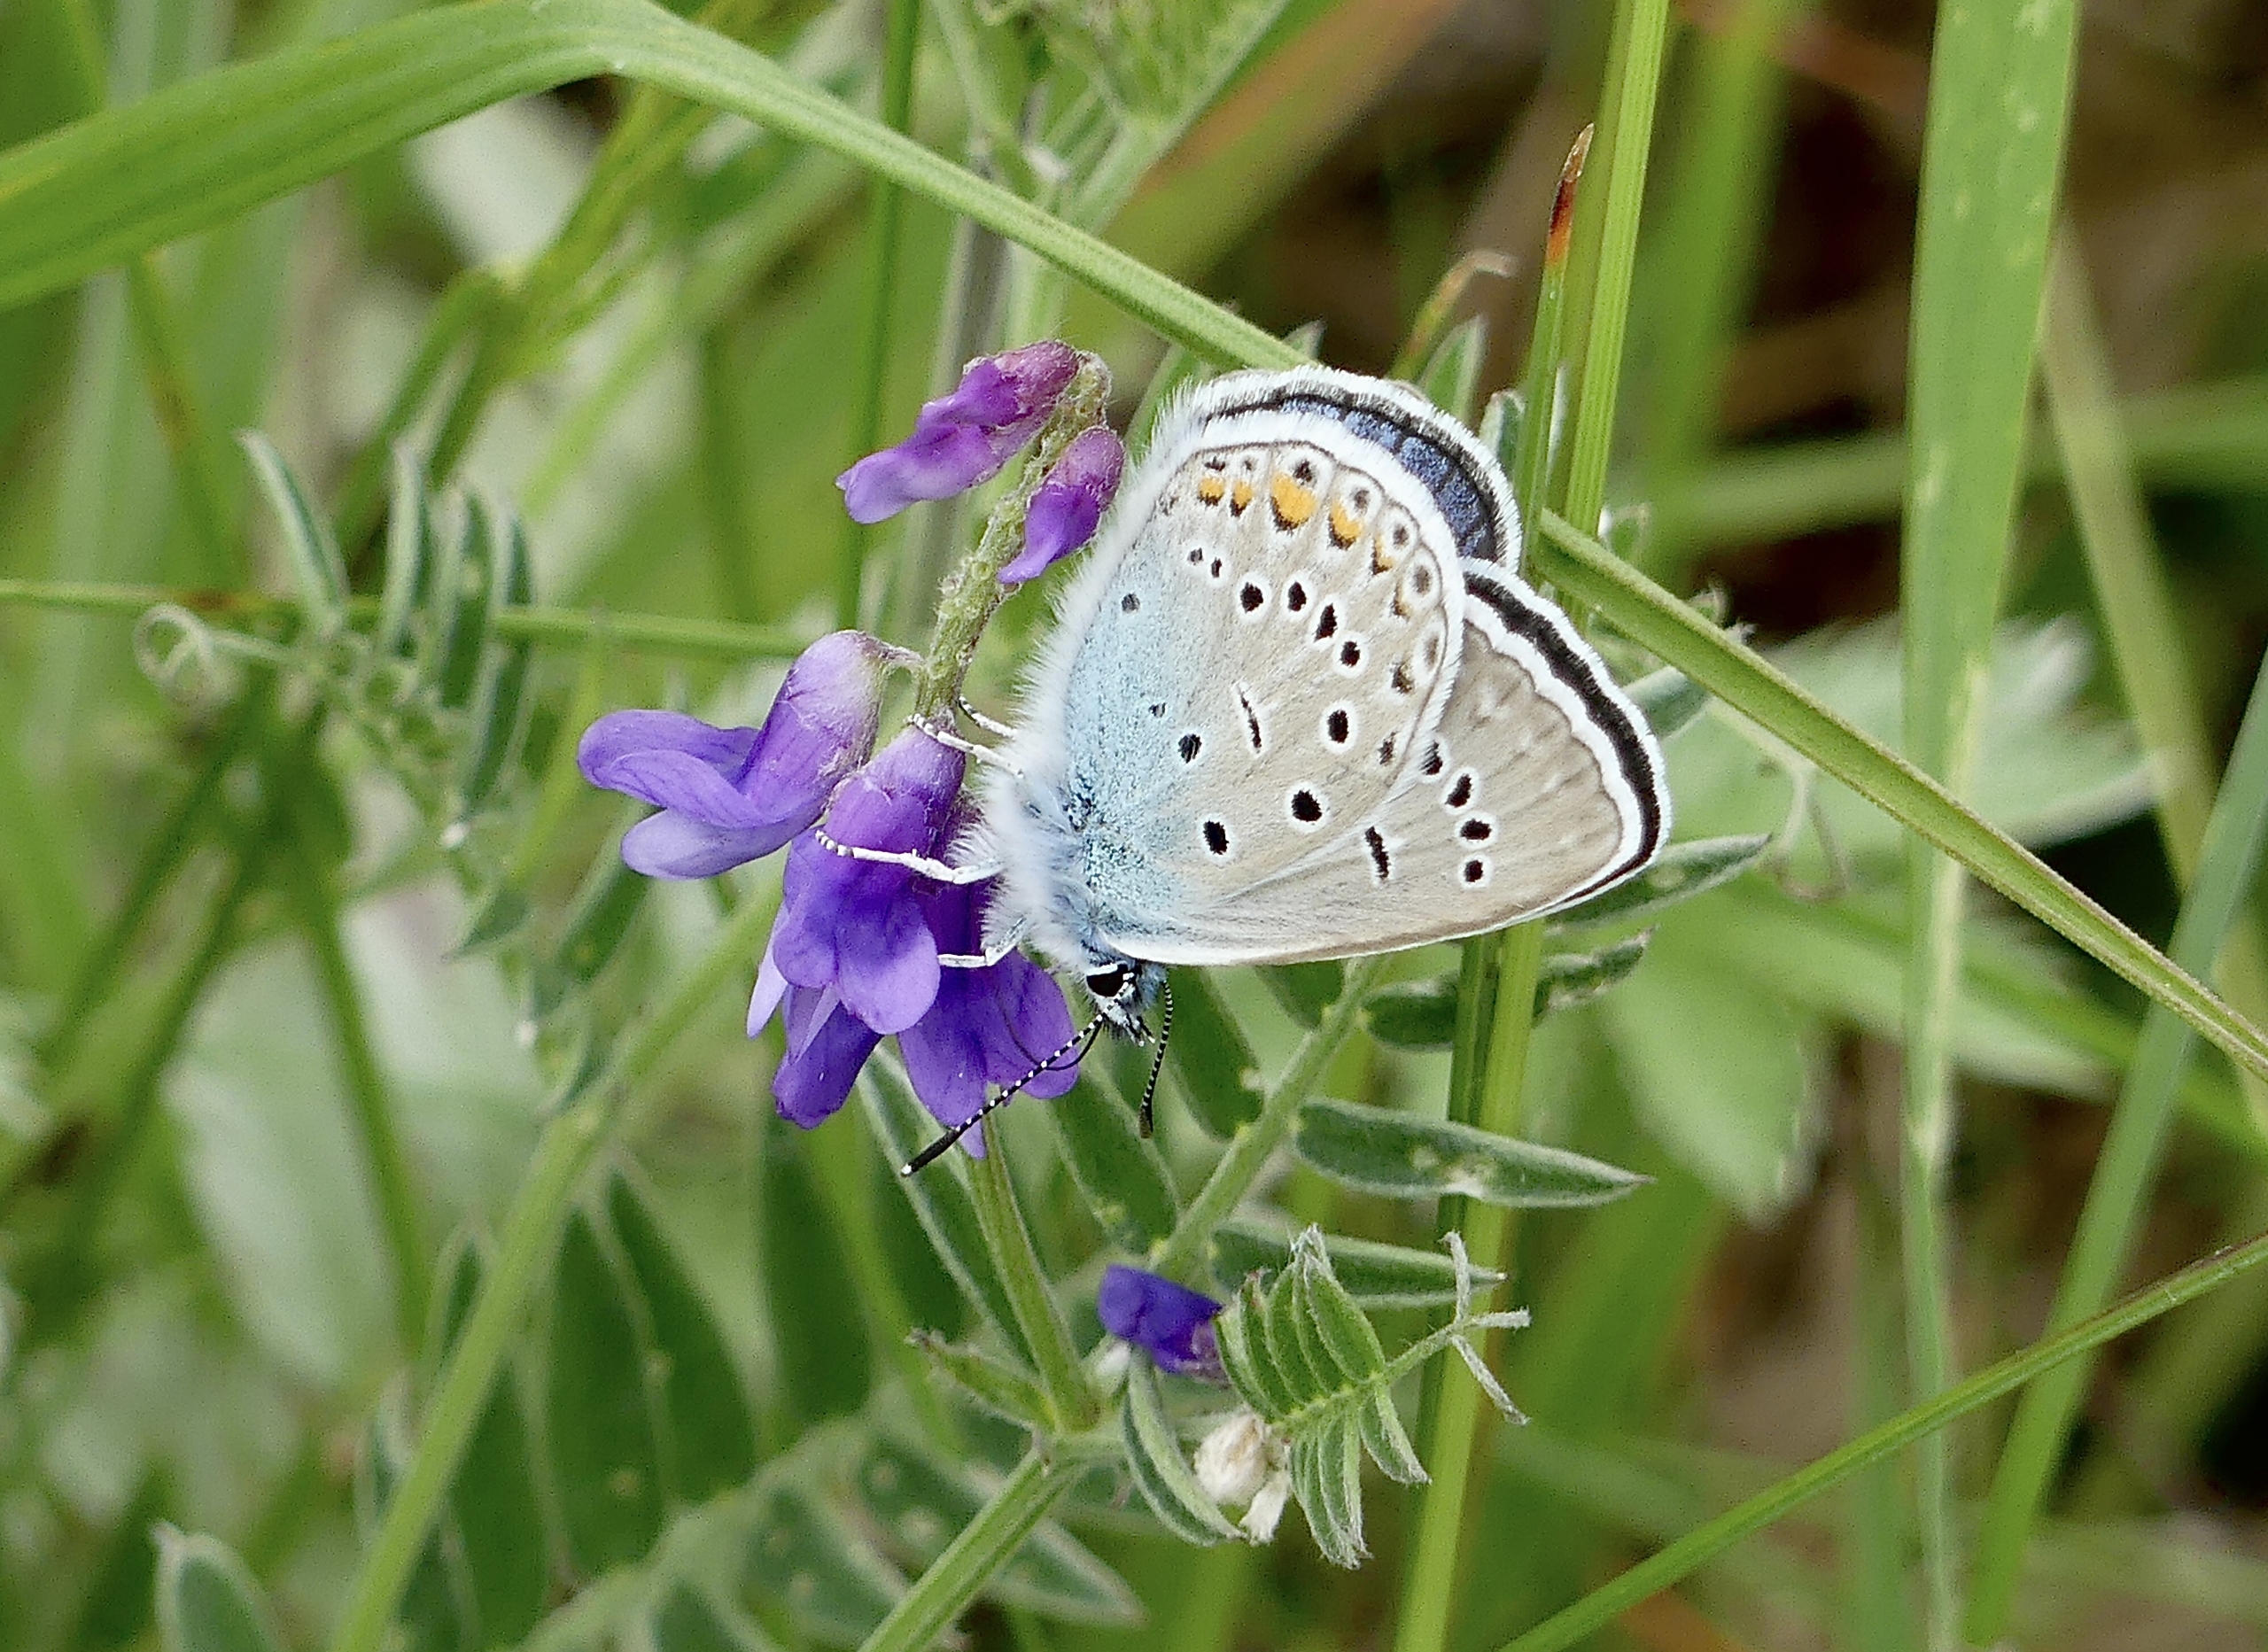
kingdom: Animalia
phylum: Arthropoda
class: Insecta
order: Lepidoptera
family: Lycaenidae
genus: Plebejus
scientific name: Plebejus amanda
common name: Isblåfugl
